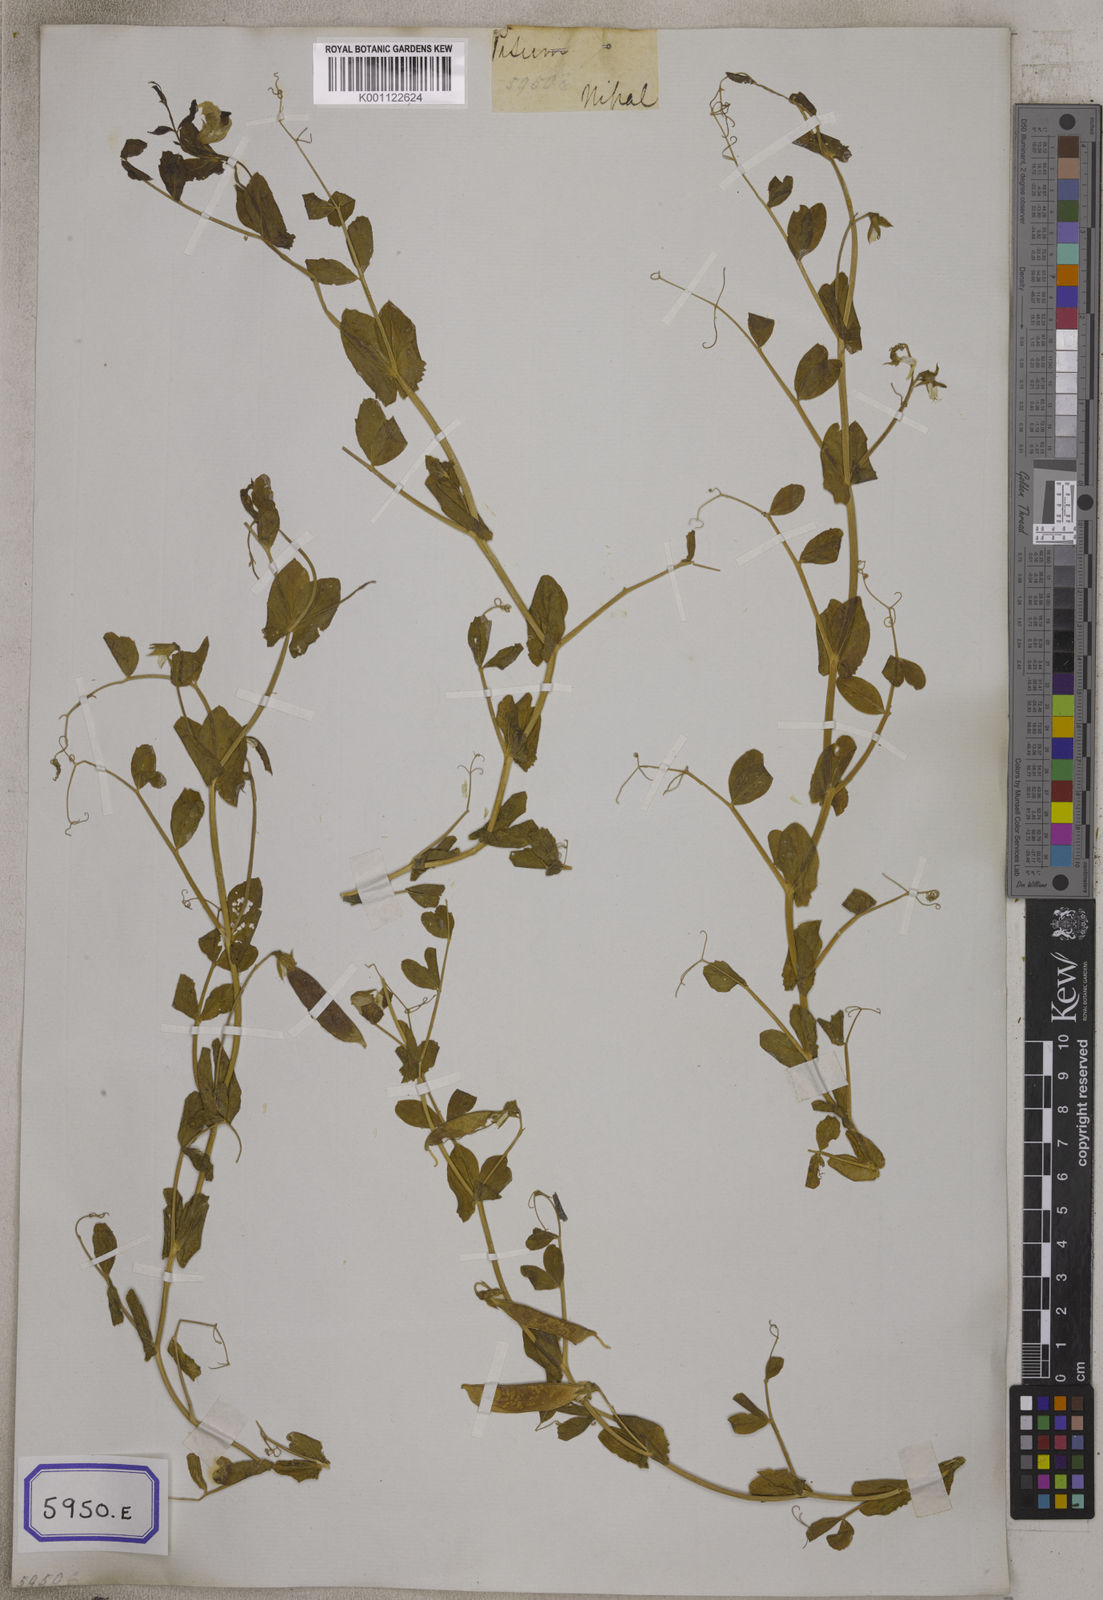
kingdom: Plantae
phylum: Tracheophyta
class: Magnoliopsida
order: Fabales
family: Fabaceae
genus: Lathyrus
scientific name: Lathyrus oleraceus
